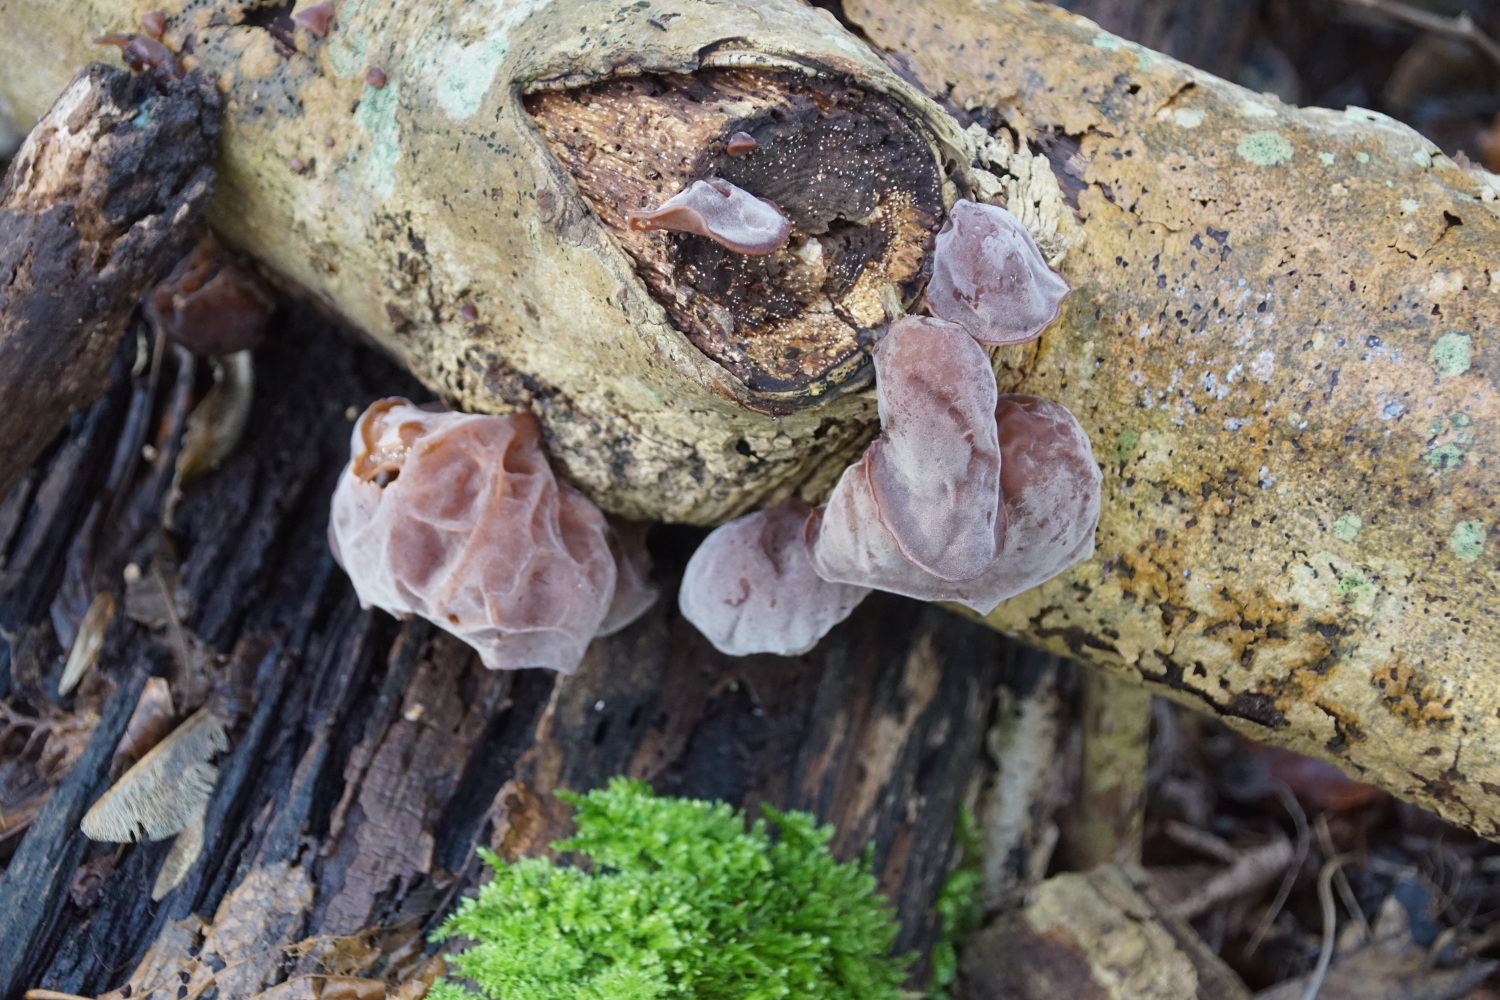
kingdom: Fungi
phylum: Basidiomycota
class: Agaricomycetes
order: Auriculariales
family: Auriculariaceae
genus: Auricularia
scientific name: Auricularia auricula-judae
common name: almindelig judasøre
